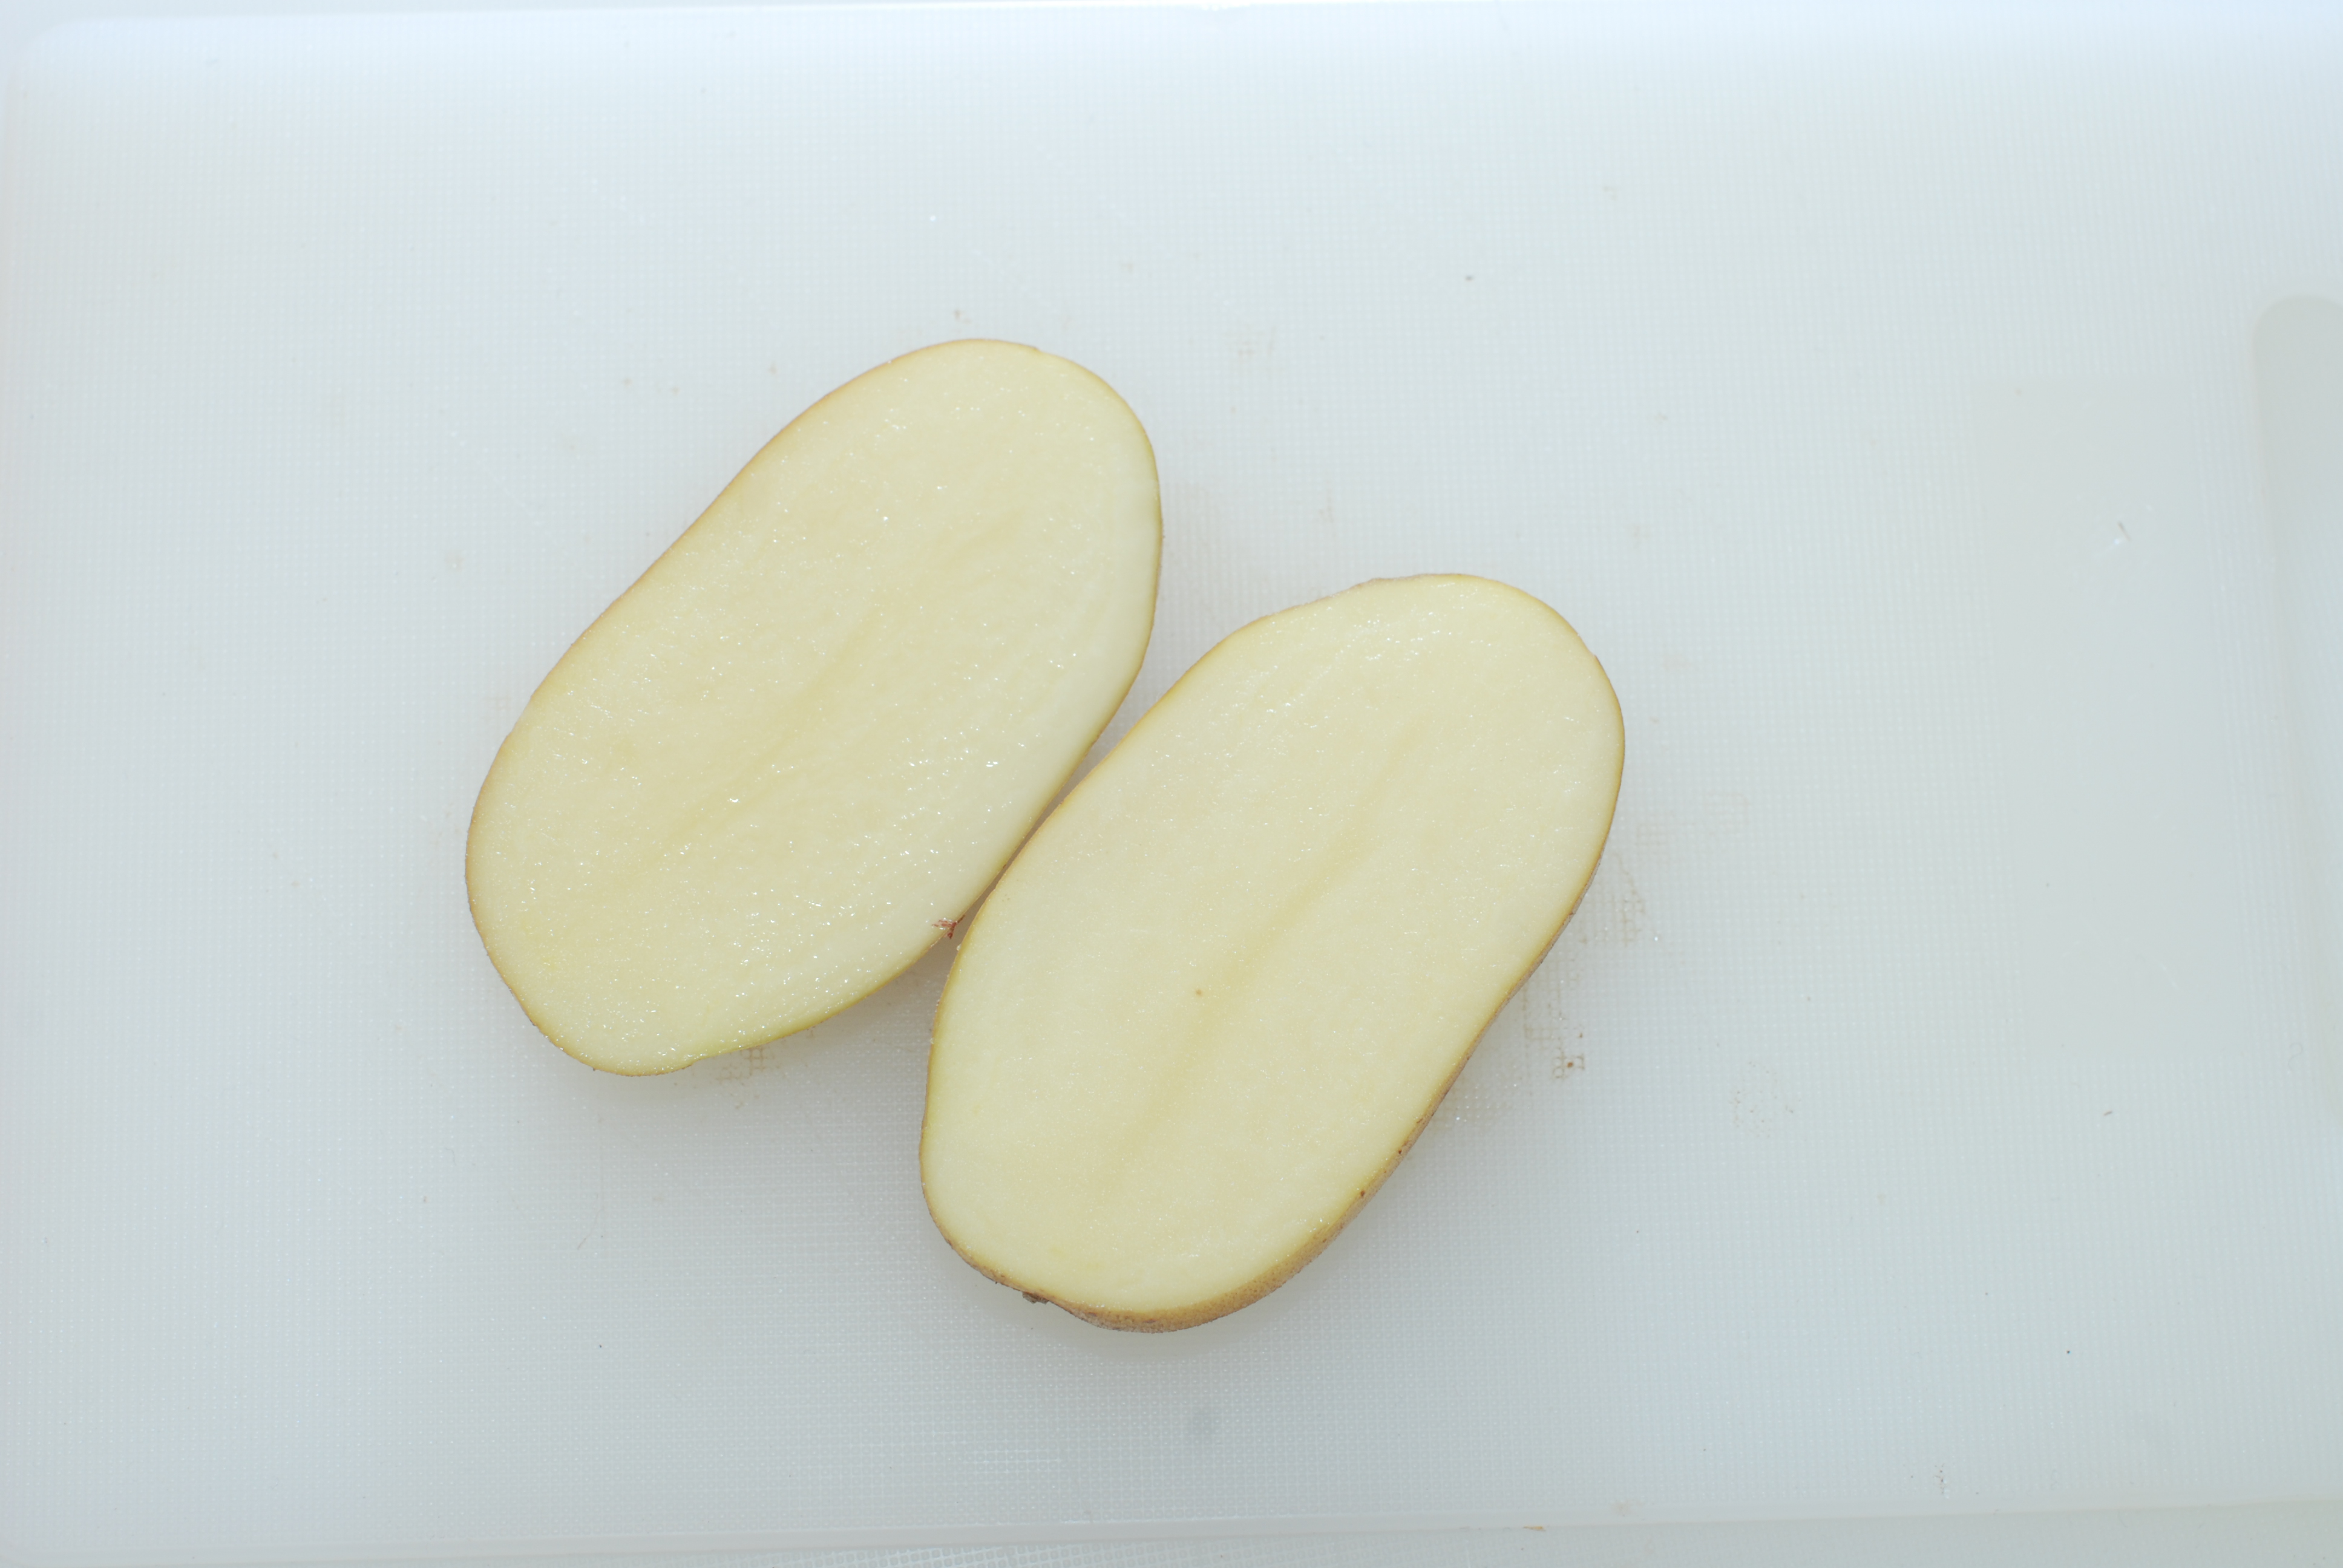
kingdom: Plantae
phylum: Tracheophyta
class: Magnoliopsida
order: Solanales
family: Solanaceae
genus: Solanum
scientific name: Solanum tuberosum
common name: Potato
